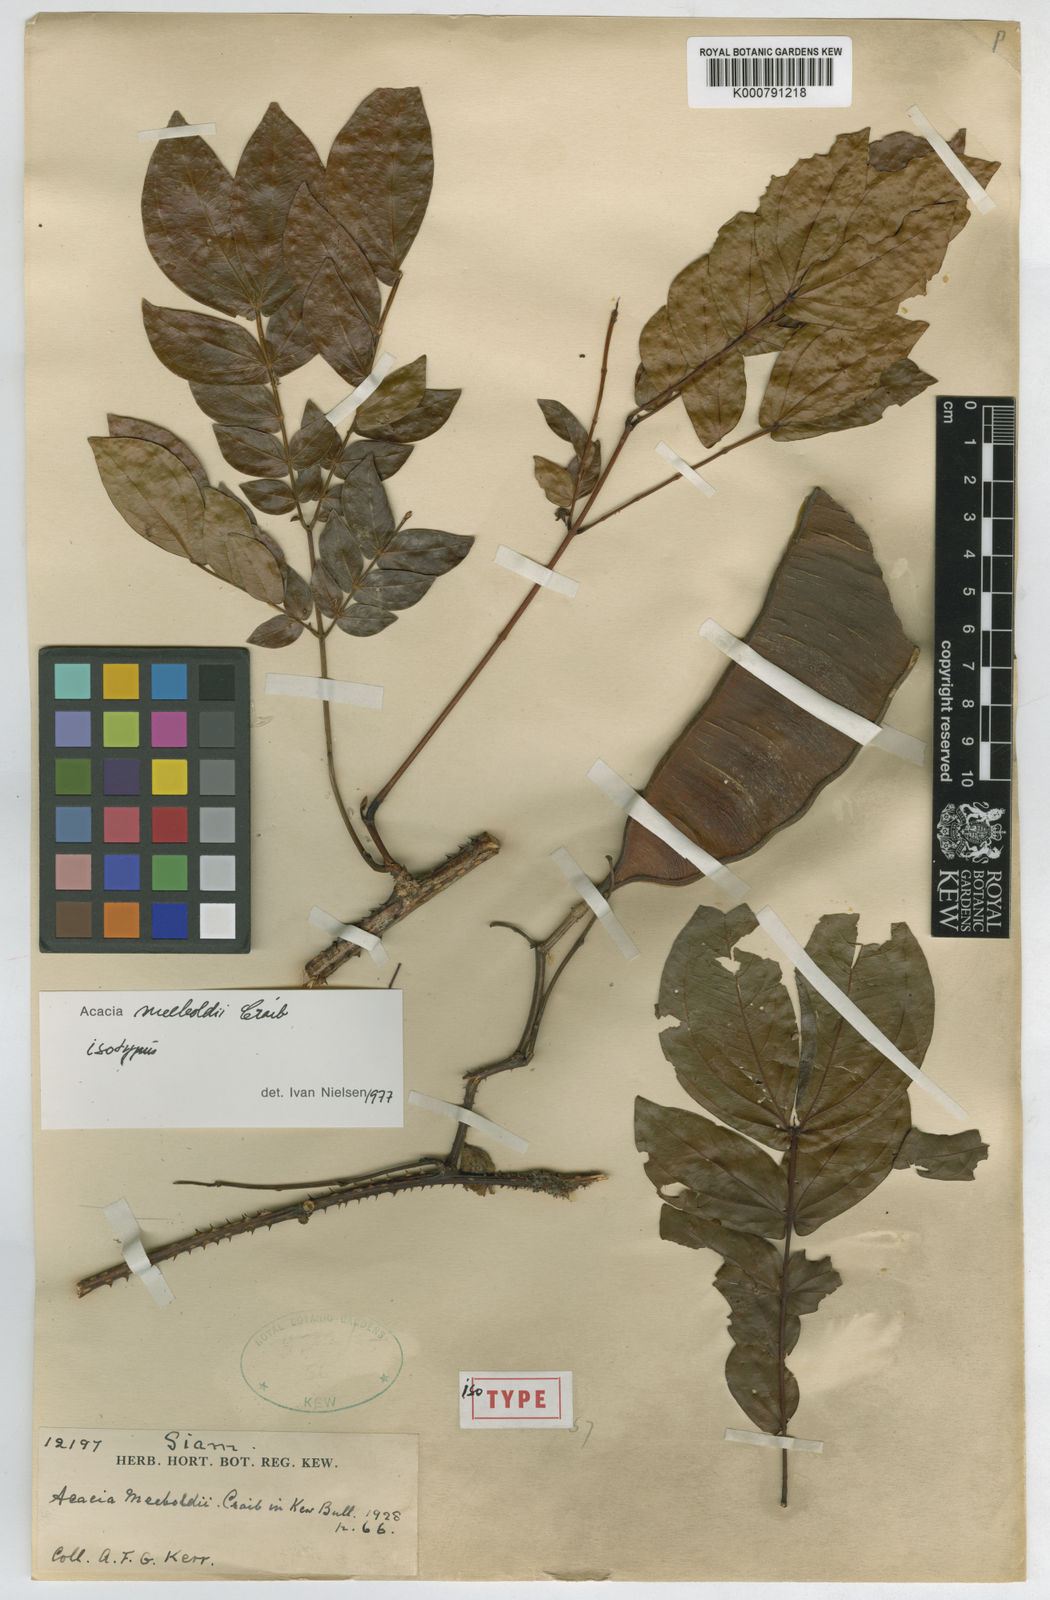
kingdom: Plantae
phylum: Tracheophyta
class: Magnoliopsida
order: Fabales
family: Fabaceae
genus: Senegalia
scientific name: Senegalia meeboldii
